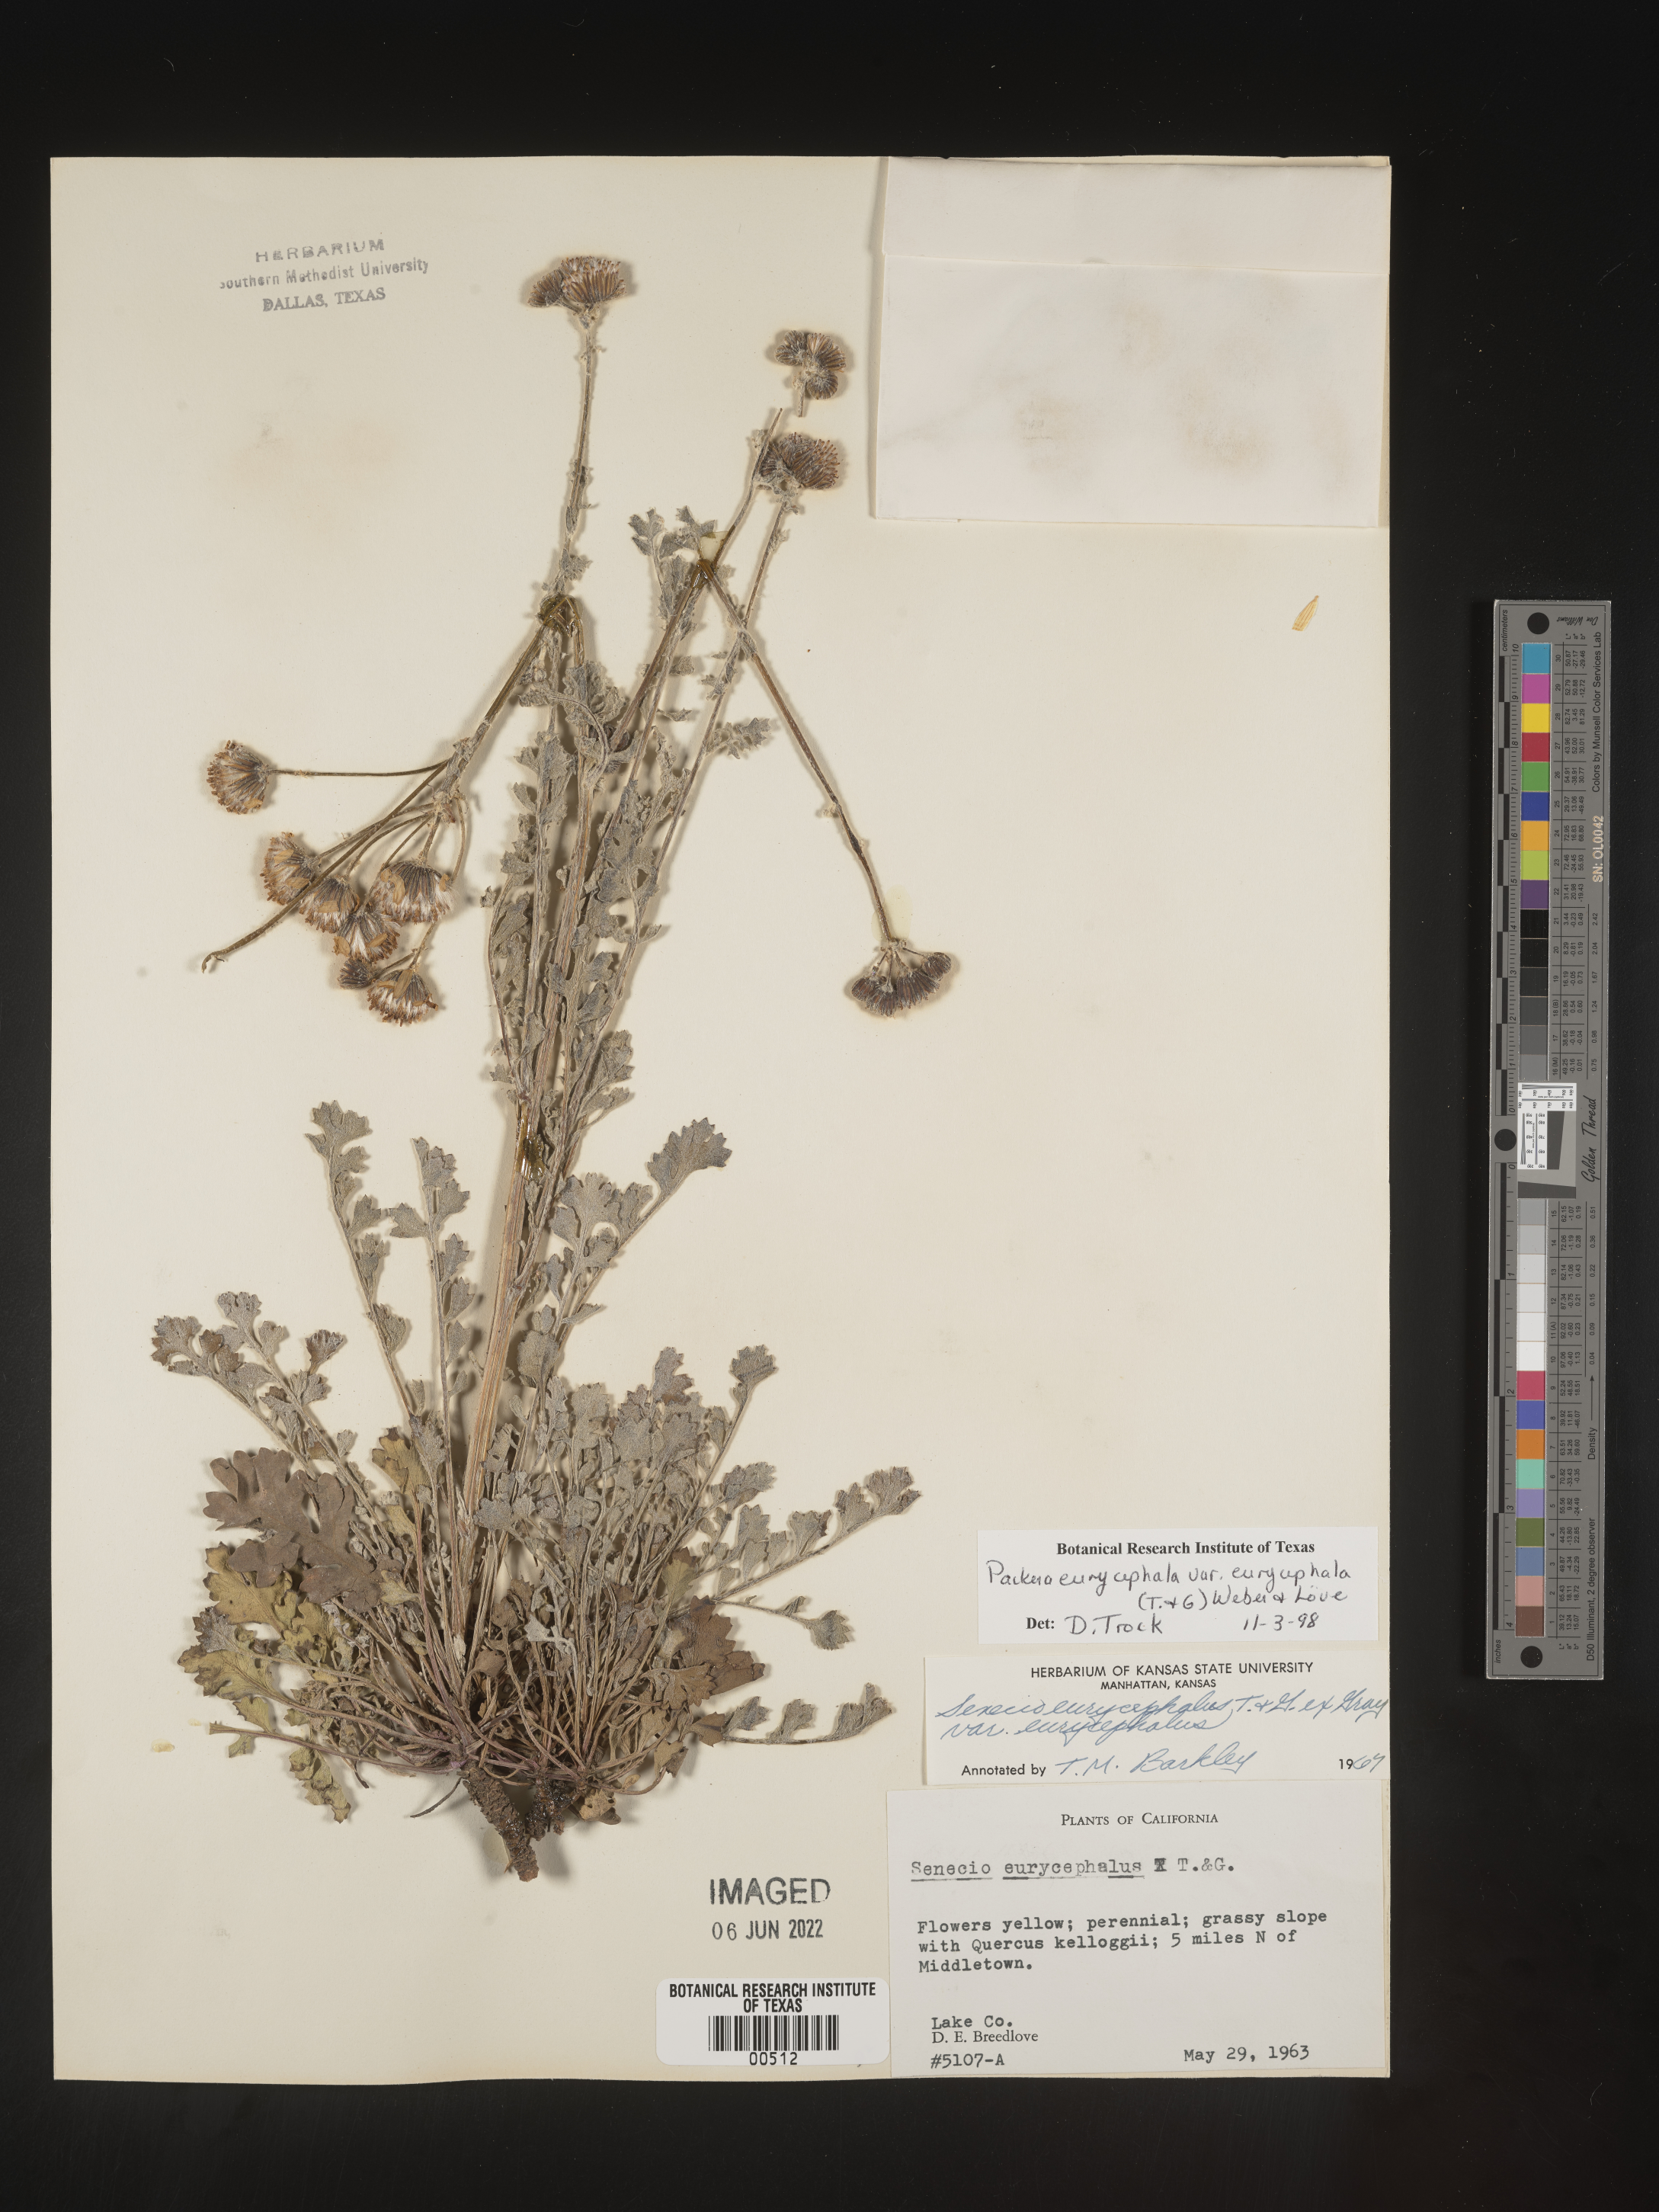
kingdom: Plantae
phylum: Tracheophyta
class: Magnoliopsida
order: Asterales
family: Asteraceae
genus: Packera
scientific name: Packera eurycephala
